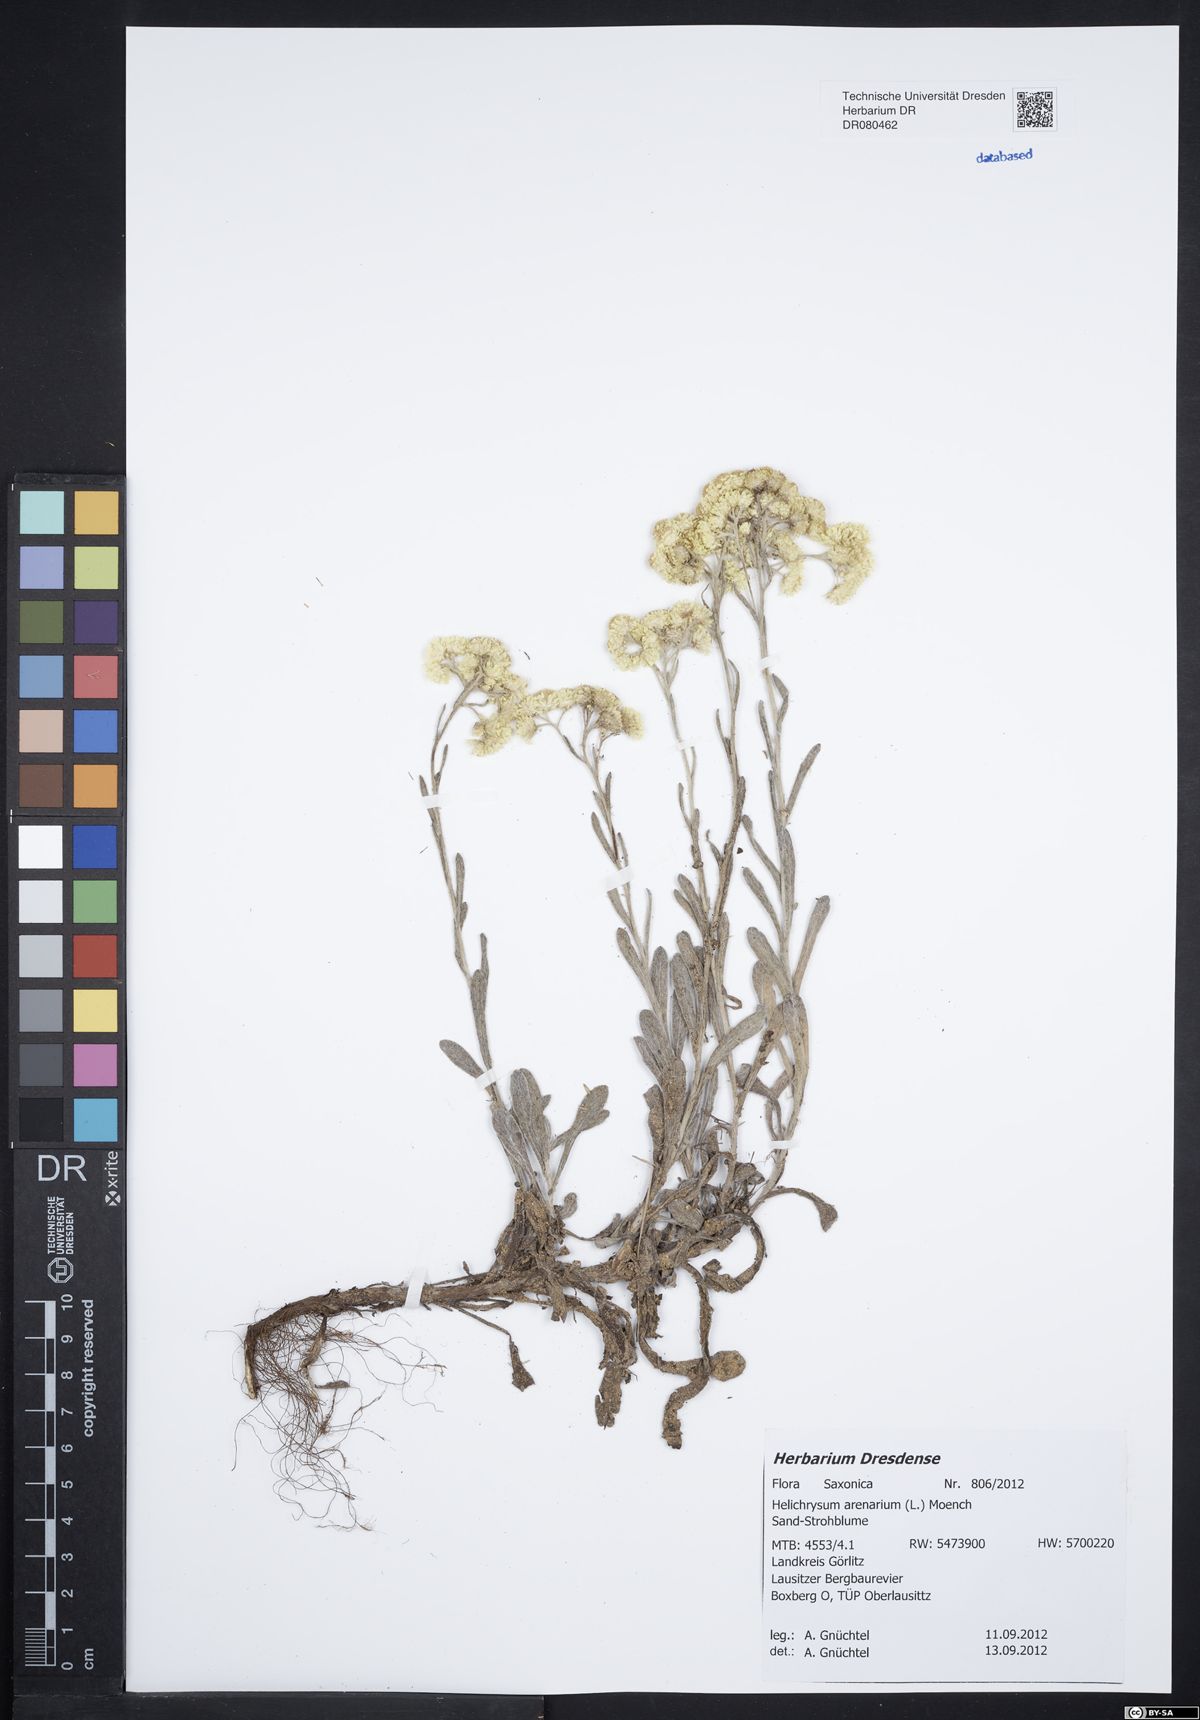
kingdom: Plantae
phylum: Tracheophyta
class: Magnoliopsida
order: Asterales
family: Asteraceae
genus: Helichrysum
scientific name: Helichrysum arenarium
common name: Strawflower
